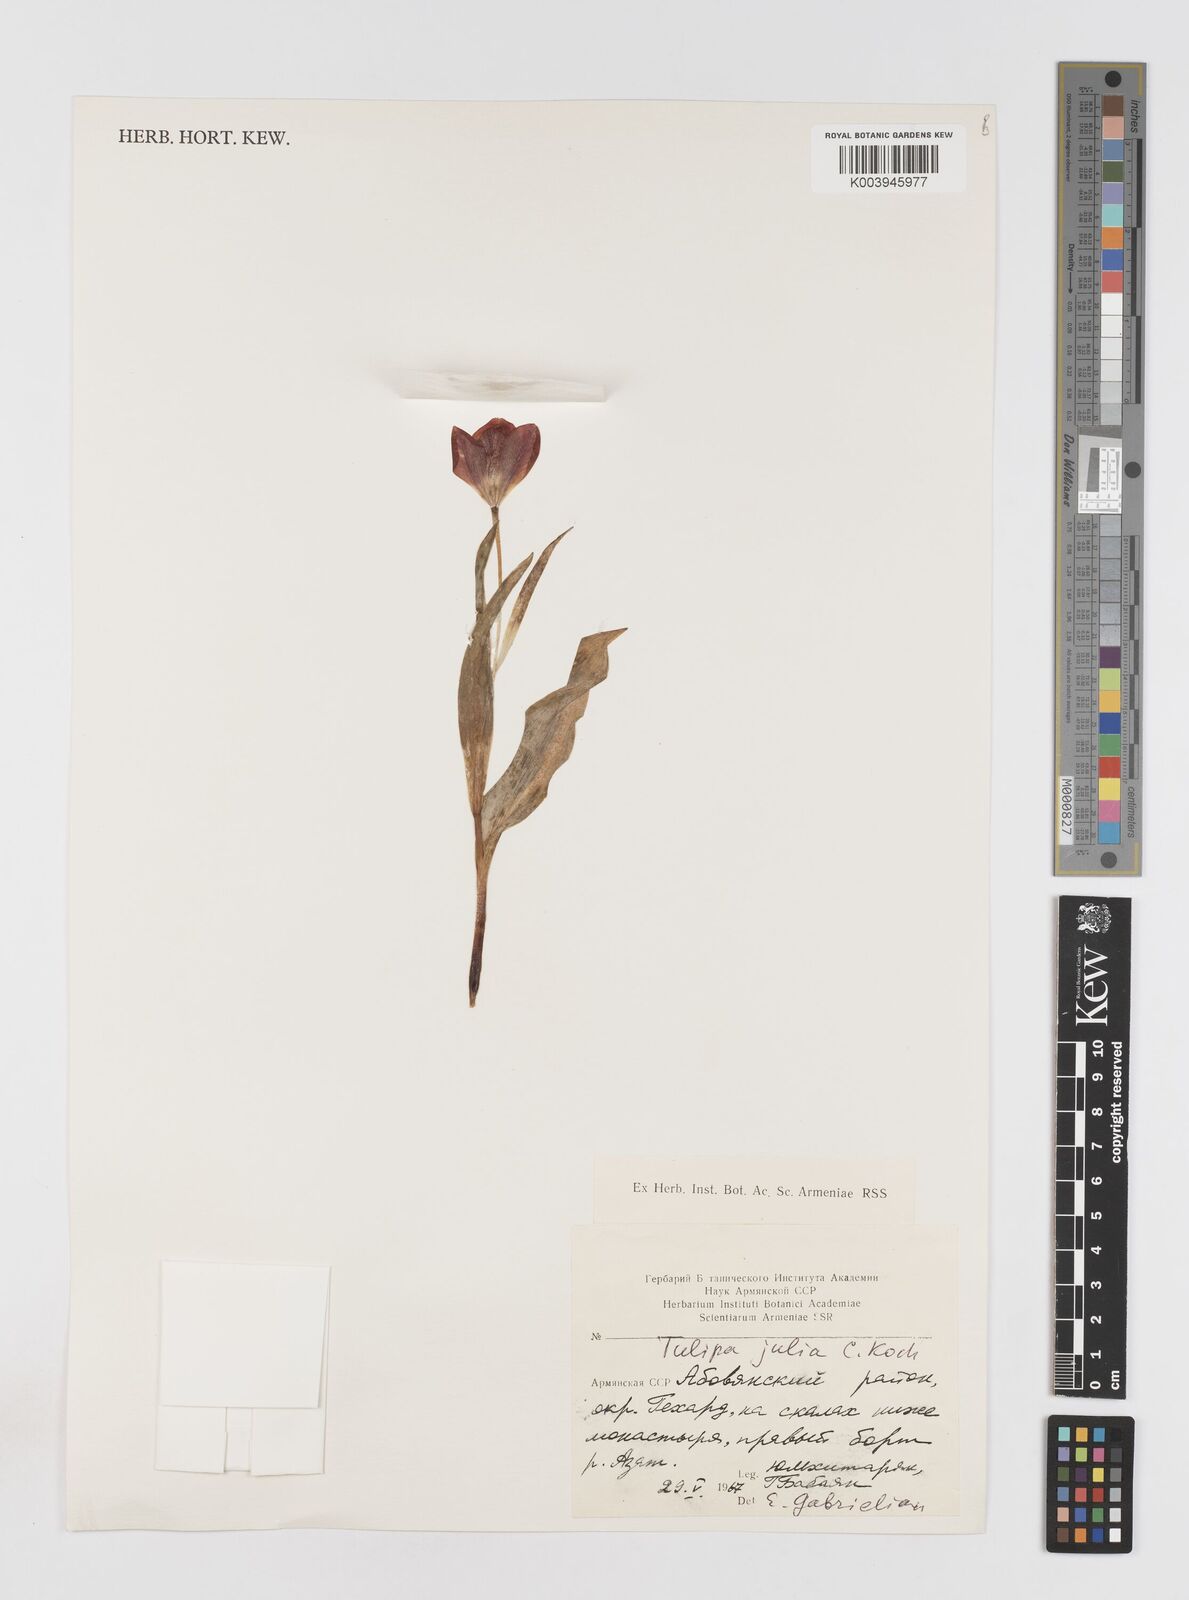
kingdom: Plantae
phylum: Tracheophyta
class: Liliopsida
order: Liliales
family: Liliaceae
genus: Tulipa
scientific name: Tulipa julia
